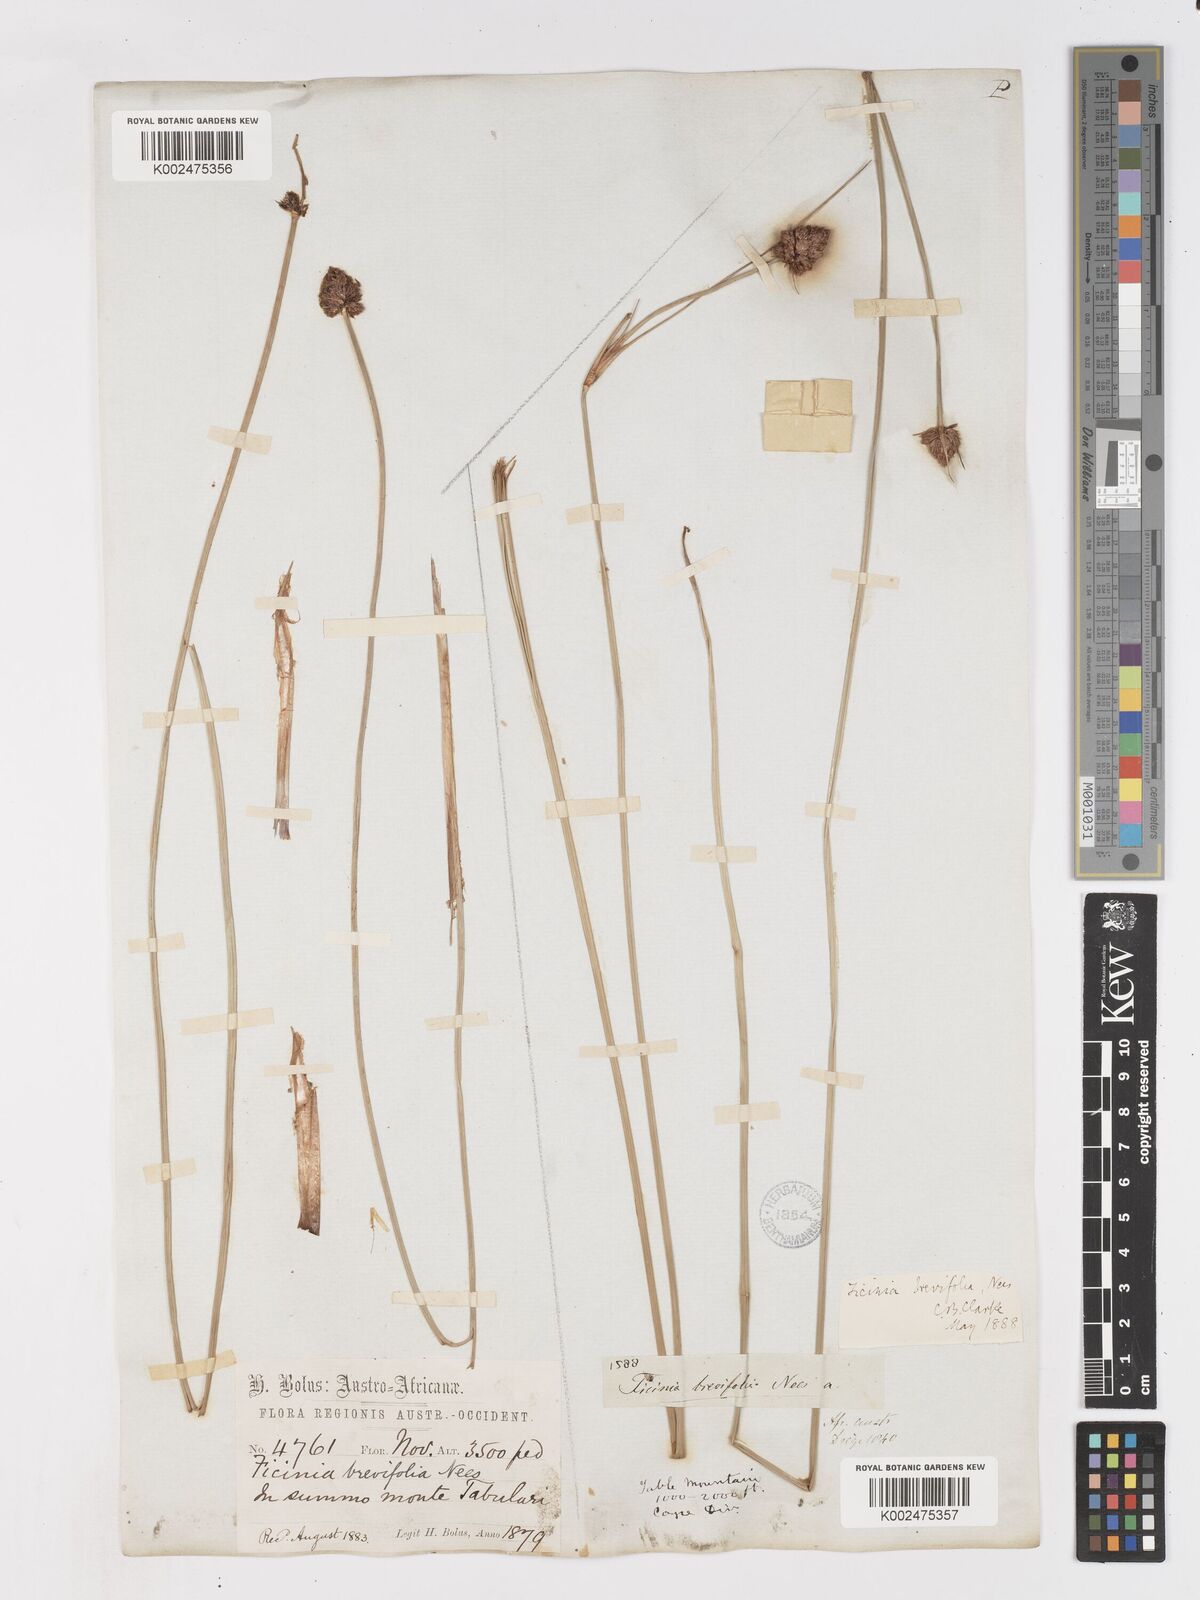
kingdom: Plantae
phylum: Tracheophyta
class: Liliopsida
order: Poales
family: Cyperaceae
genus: Ficinia
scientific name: Ficinia brevifolia
